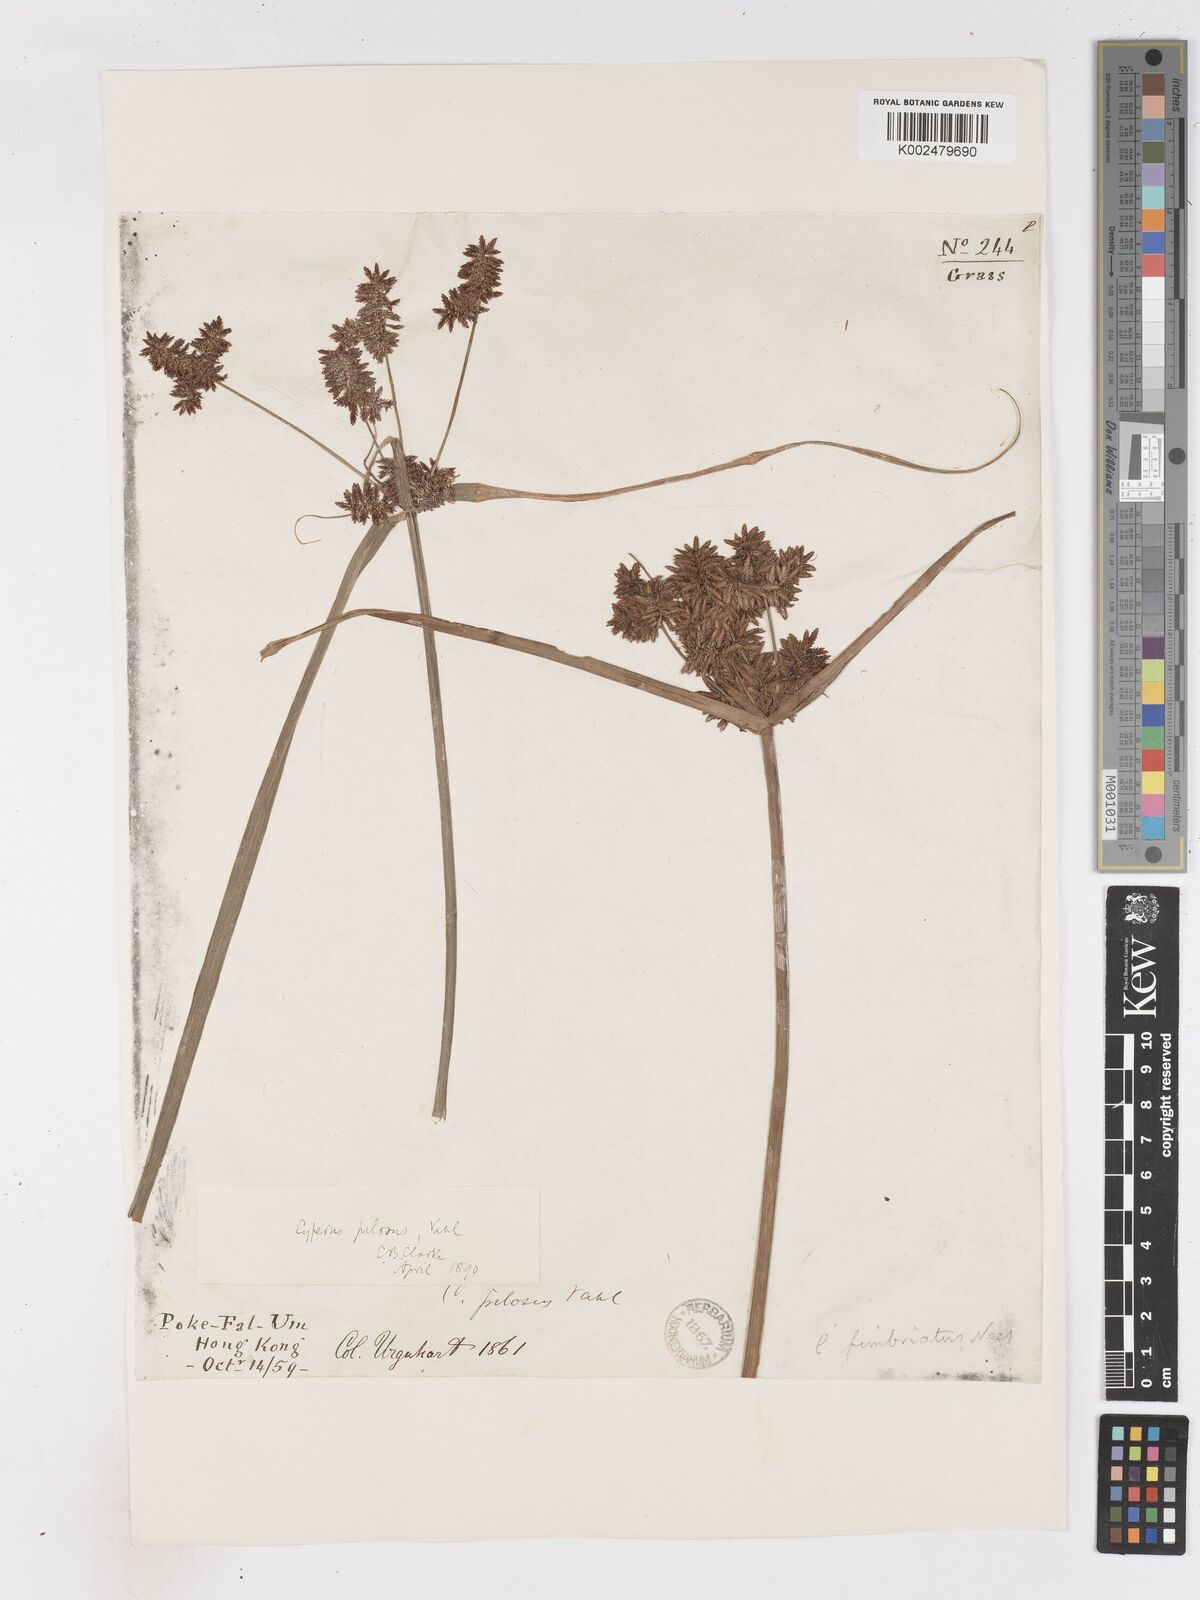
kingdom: Plantae
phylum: Tracheophyta
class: Liliopsida
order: Poales
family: Cyperaceae
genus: Cyperus
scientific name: Cyperus pilosus
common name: Fuzzy flatsedge
